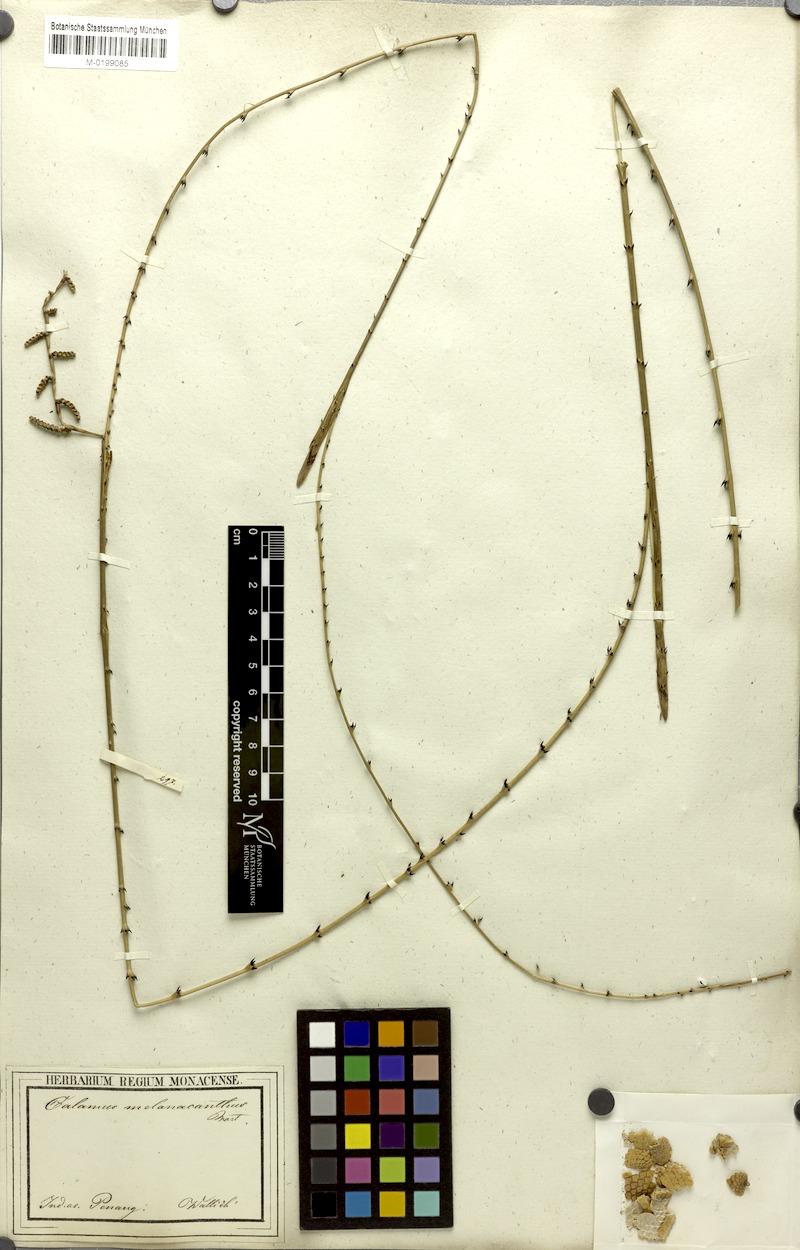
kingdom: Plantae
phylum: Tracheophyta
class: Liliopsida
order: Arecales
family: Arecaceae
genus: Calamus
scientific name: Calamus melanacanthus
